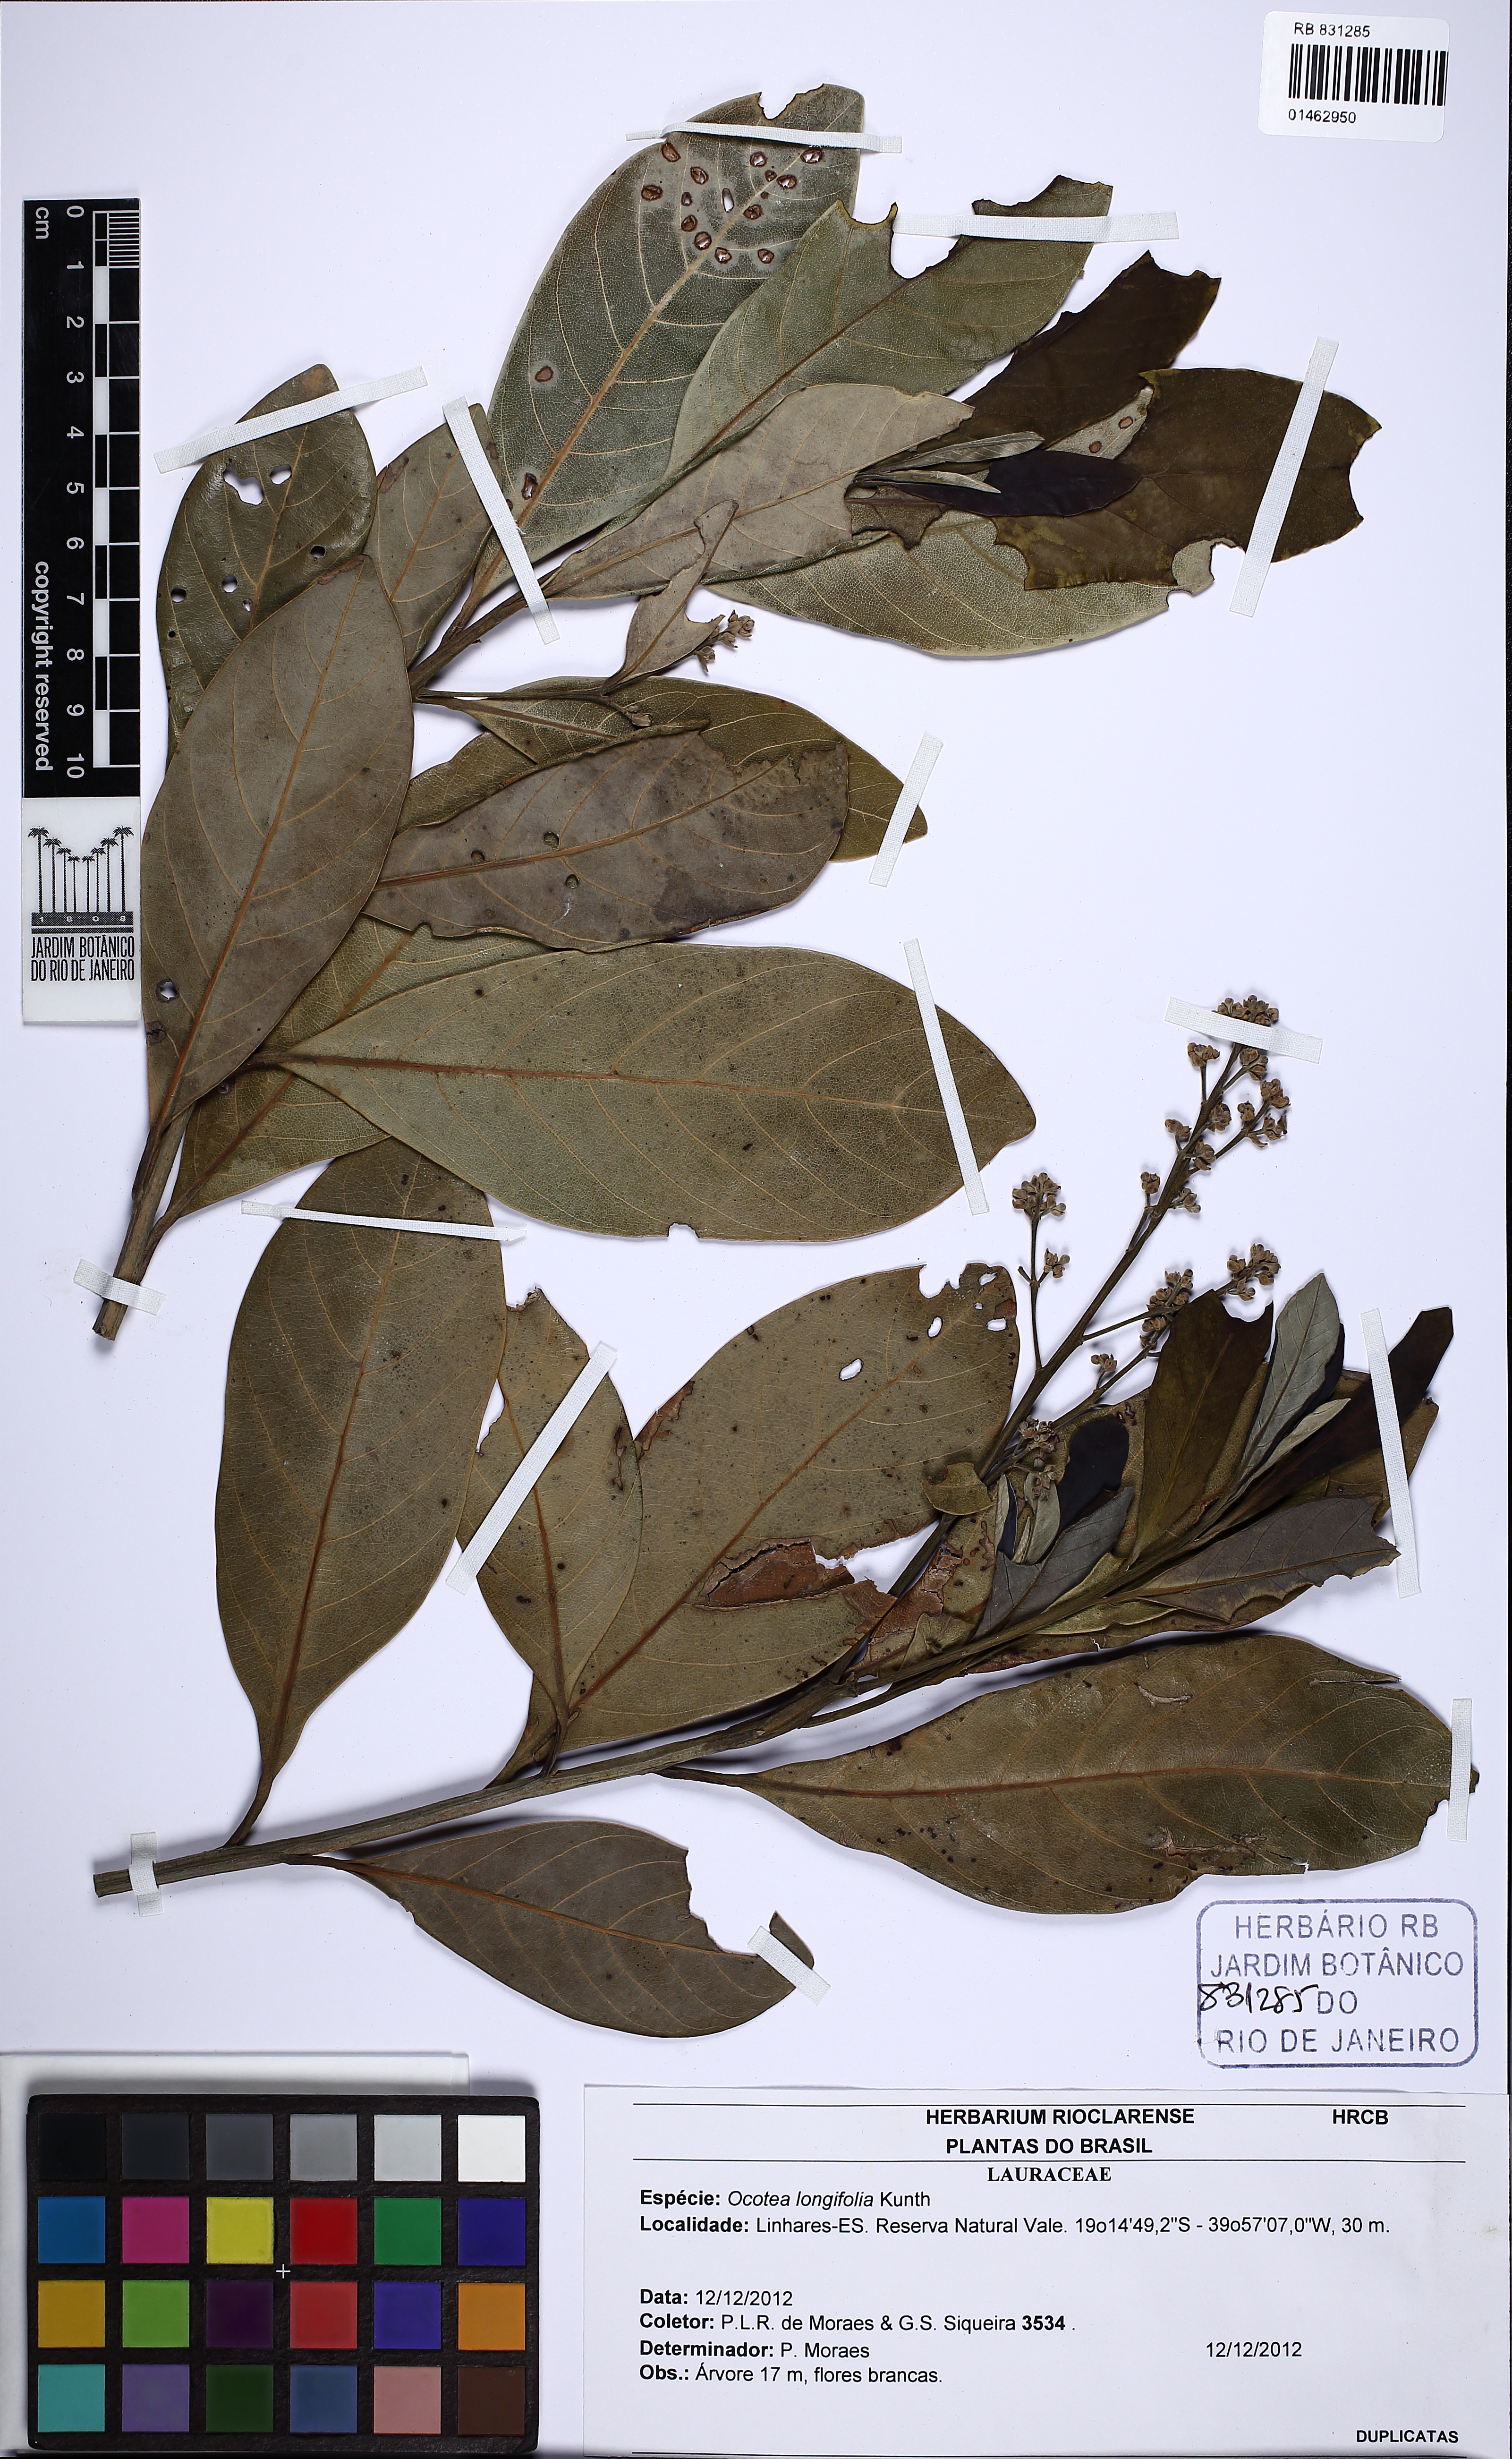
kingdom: Plantae
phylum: Tracheophyta
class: Magnoliopsida
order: Laurales
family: Lauraceae
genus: Mespilodaphne
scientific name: Mespilodaphne opifera
